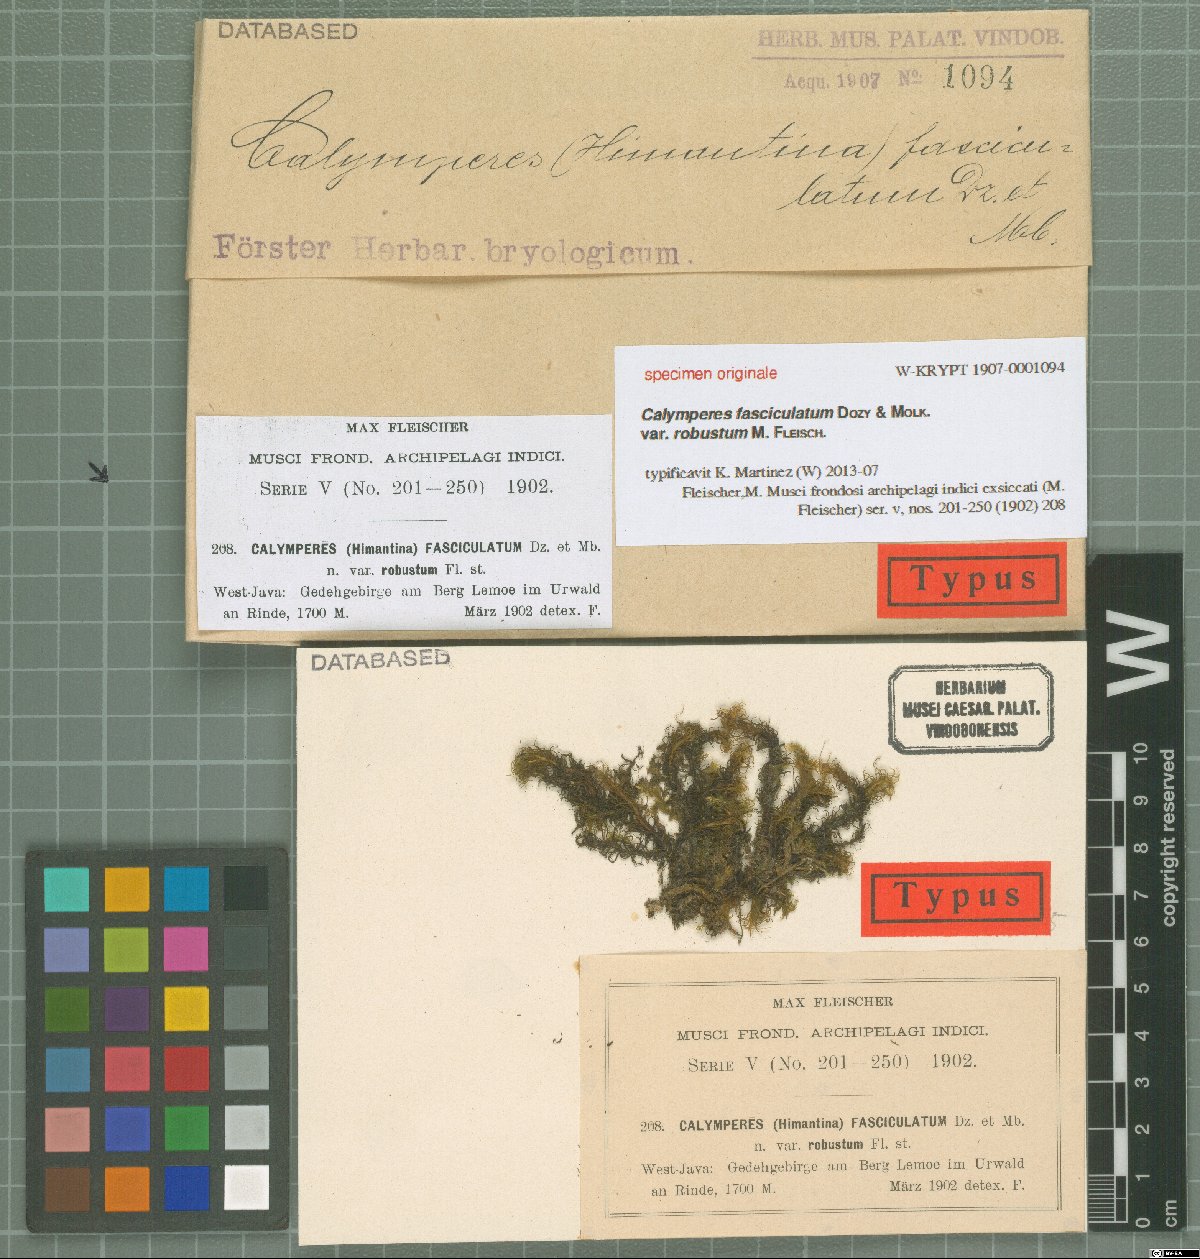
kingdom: Plantae
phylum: Bryophyta
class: Bryopsida
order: Dicranales
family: Calymperaceae
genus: Calymperes
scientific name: Calymperes fasciculatum
